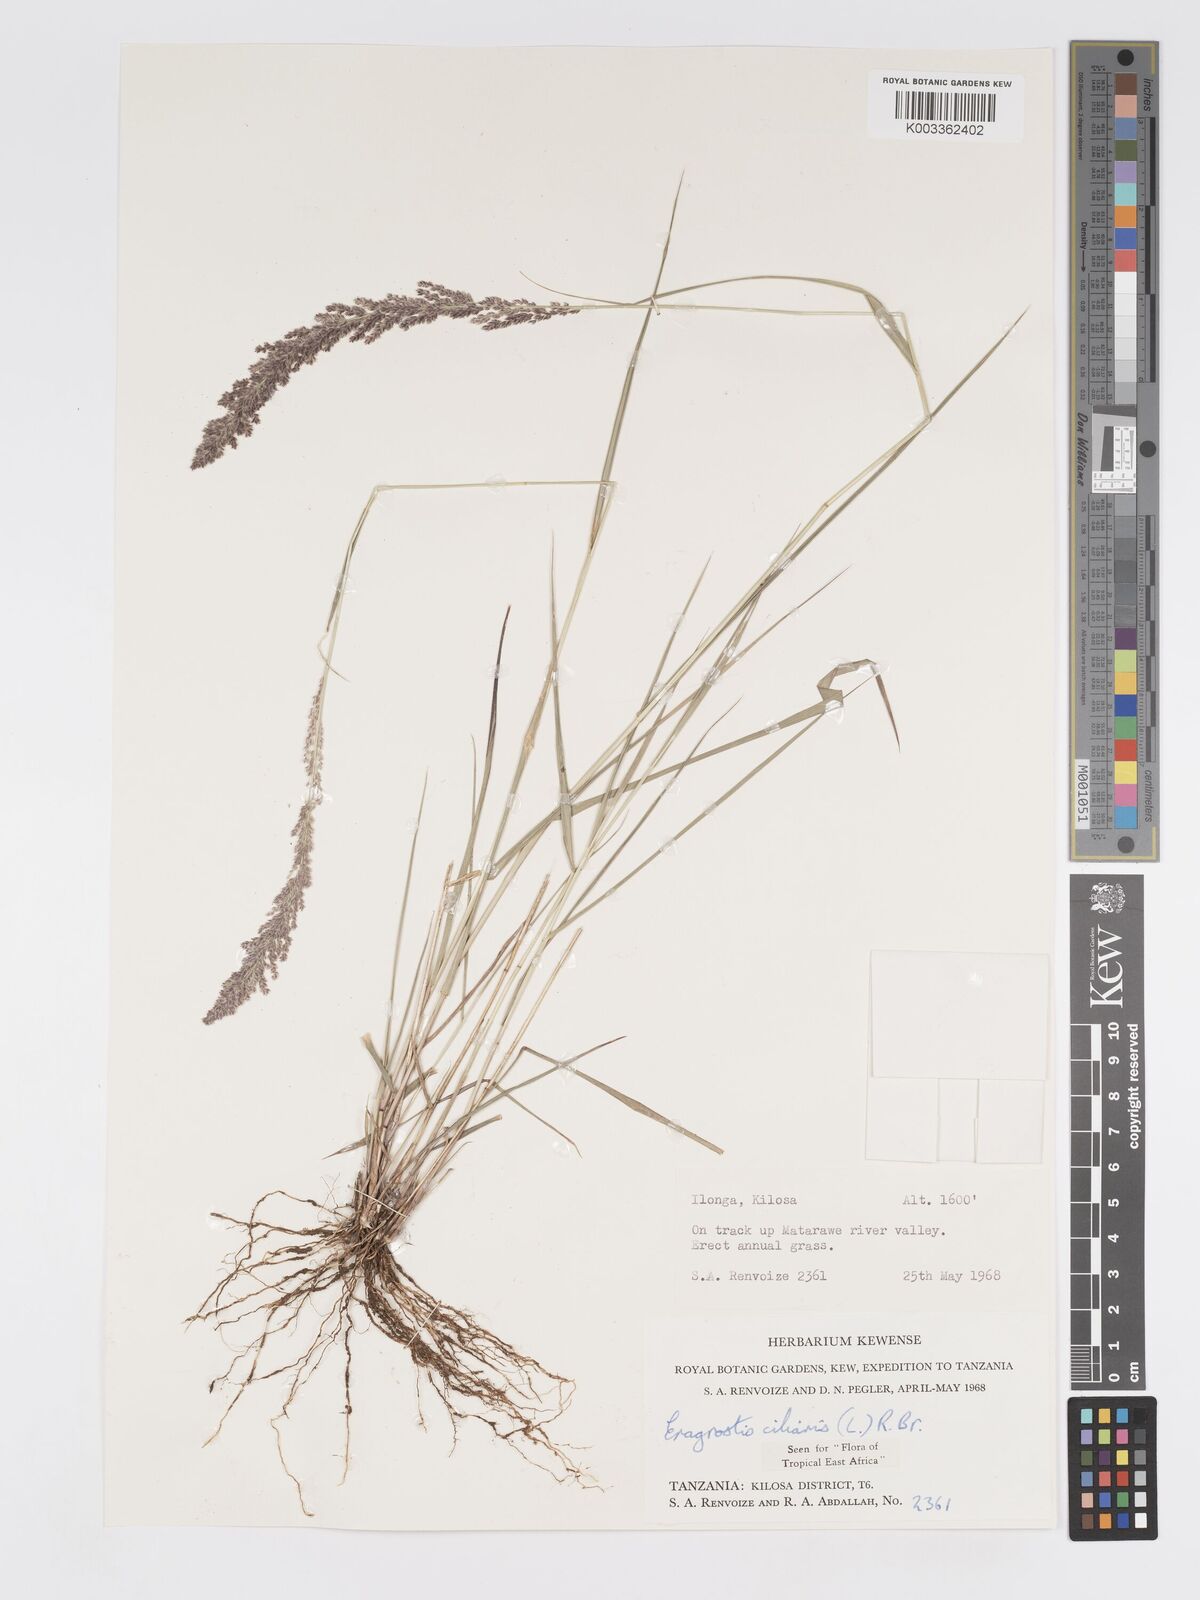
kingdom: Plantae
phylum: Tracheophyta
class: Liliopsida
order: Poales
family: Poaceae
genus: Eragrostis
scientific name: Eragrostis ciliaris
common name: Gophertail lovegrass
